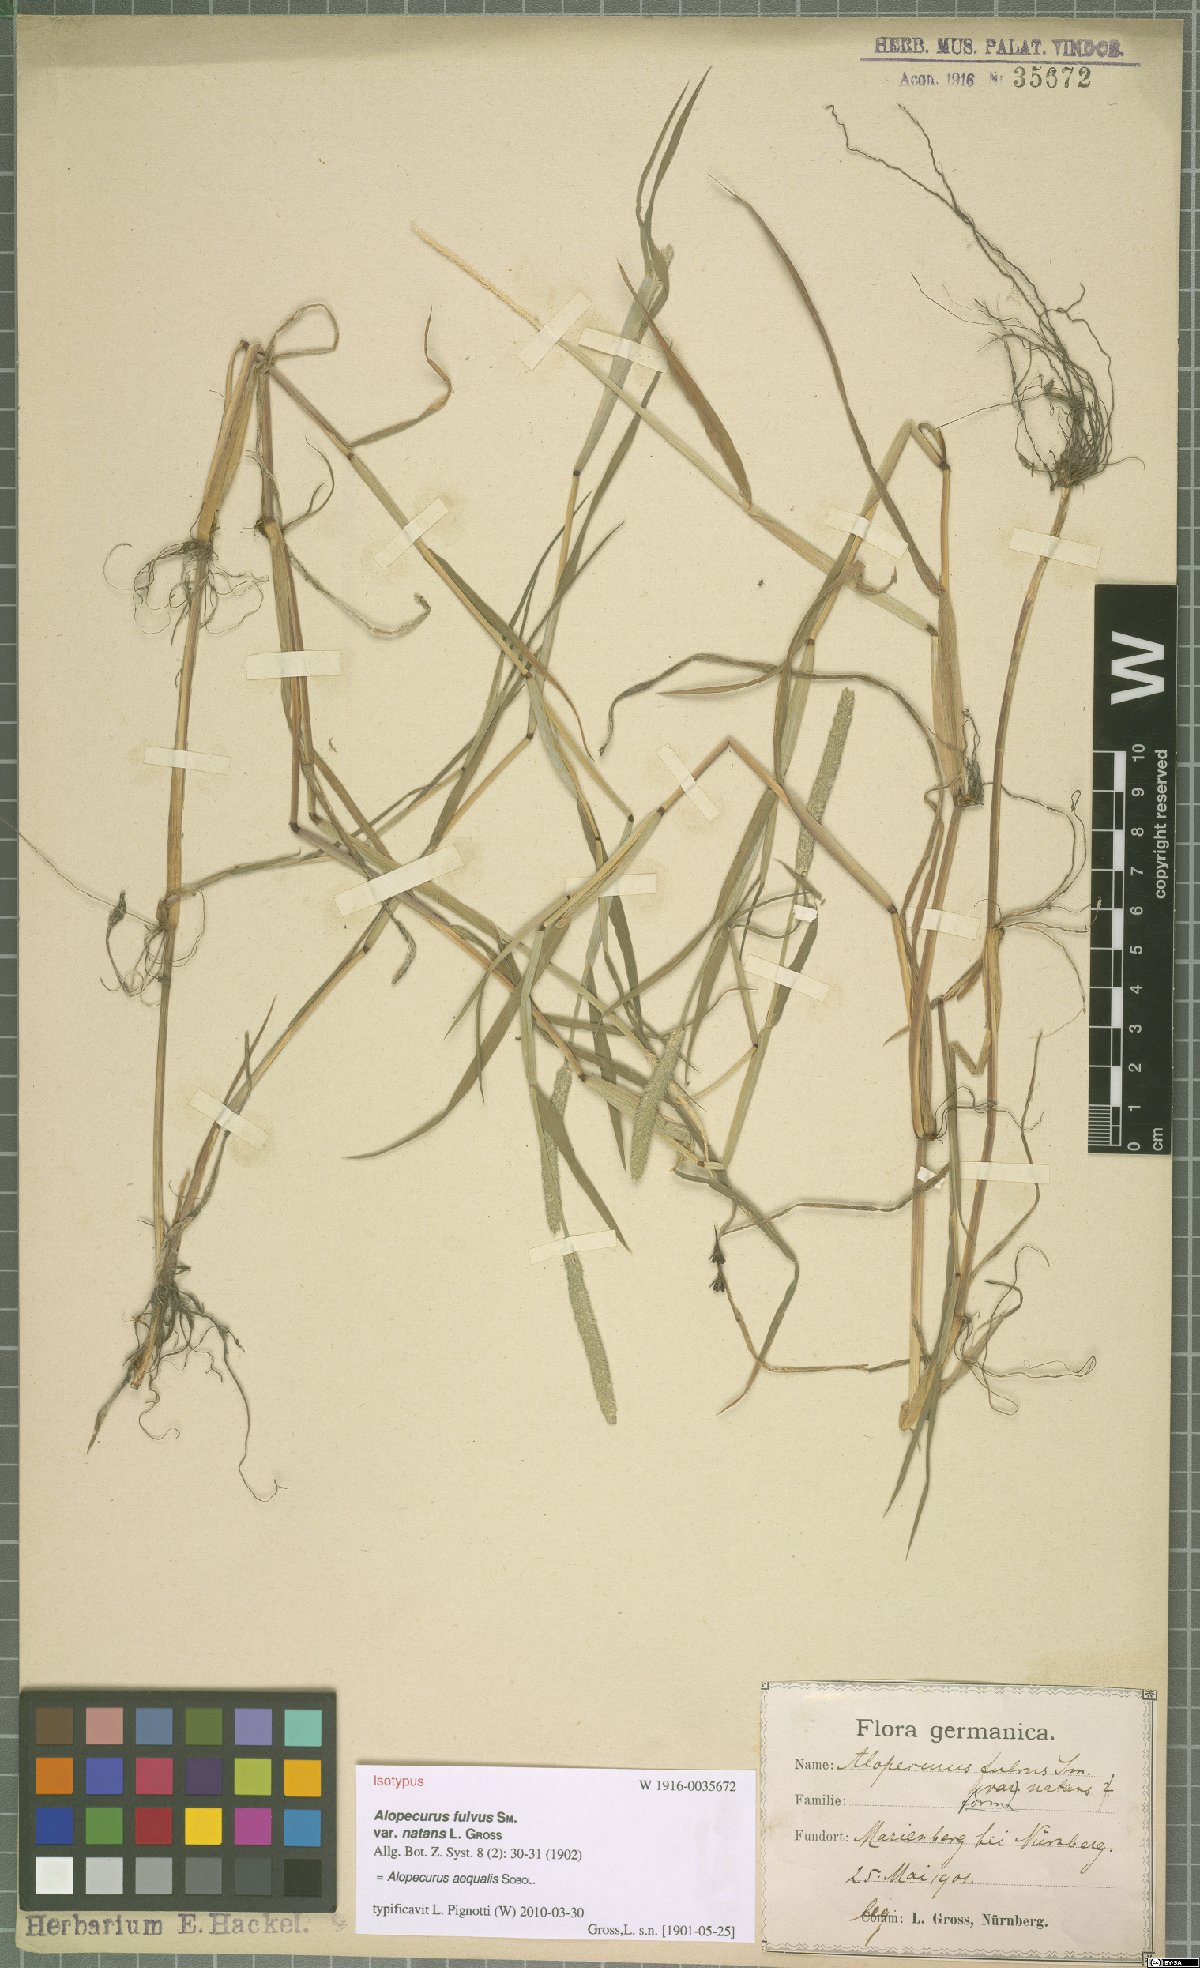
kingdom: Plantae
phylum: Tracheophyta
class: Liliopsida
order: Poales
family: Poaceae
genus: Alopecurus
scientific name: Alopecurus aequalis
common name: Orange foxtail
